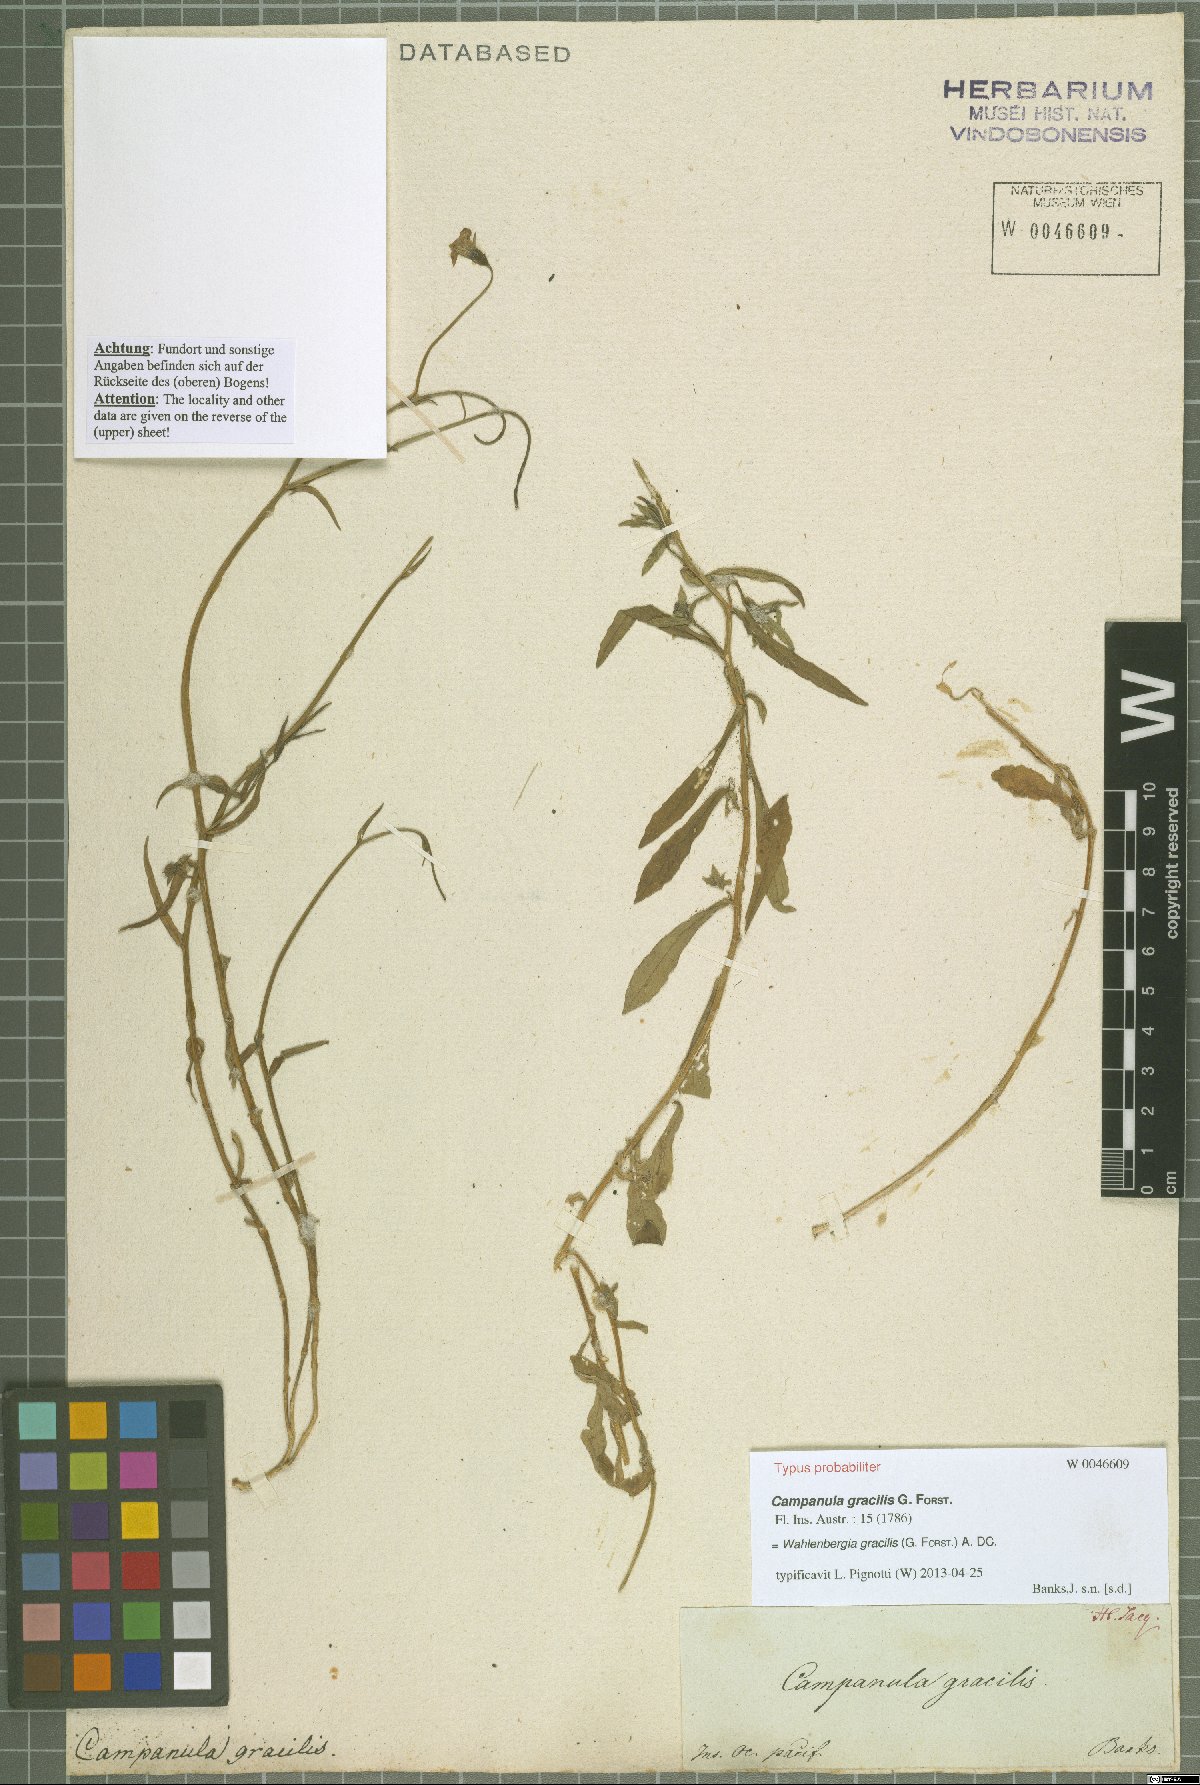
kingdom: Plantae
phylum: Tracheophyta
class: Magnoliopsida
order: Asterales
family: Campanulaceae
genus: Wahlenbergia
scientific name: Wahlenbergia gracilis
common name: Harebell
